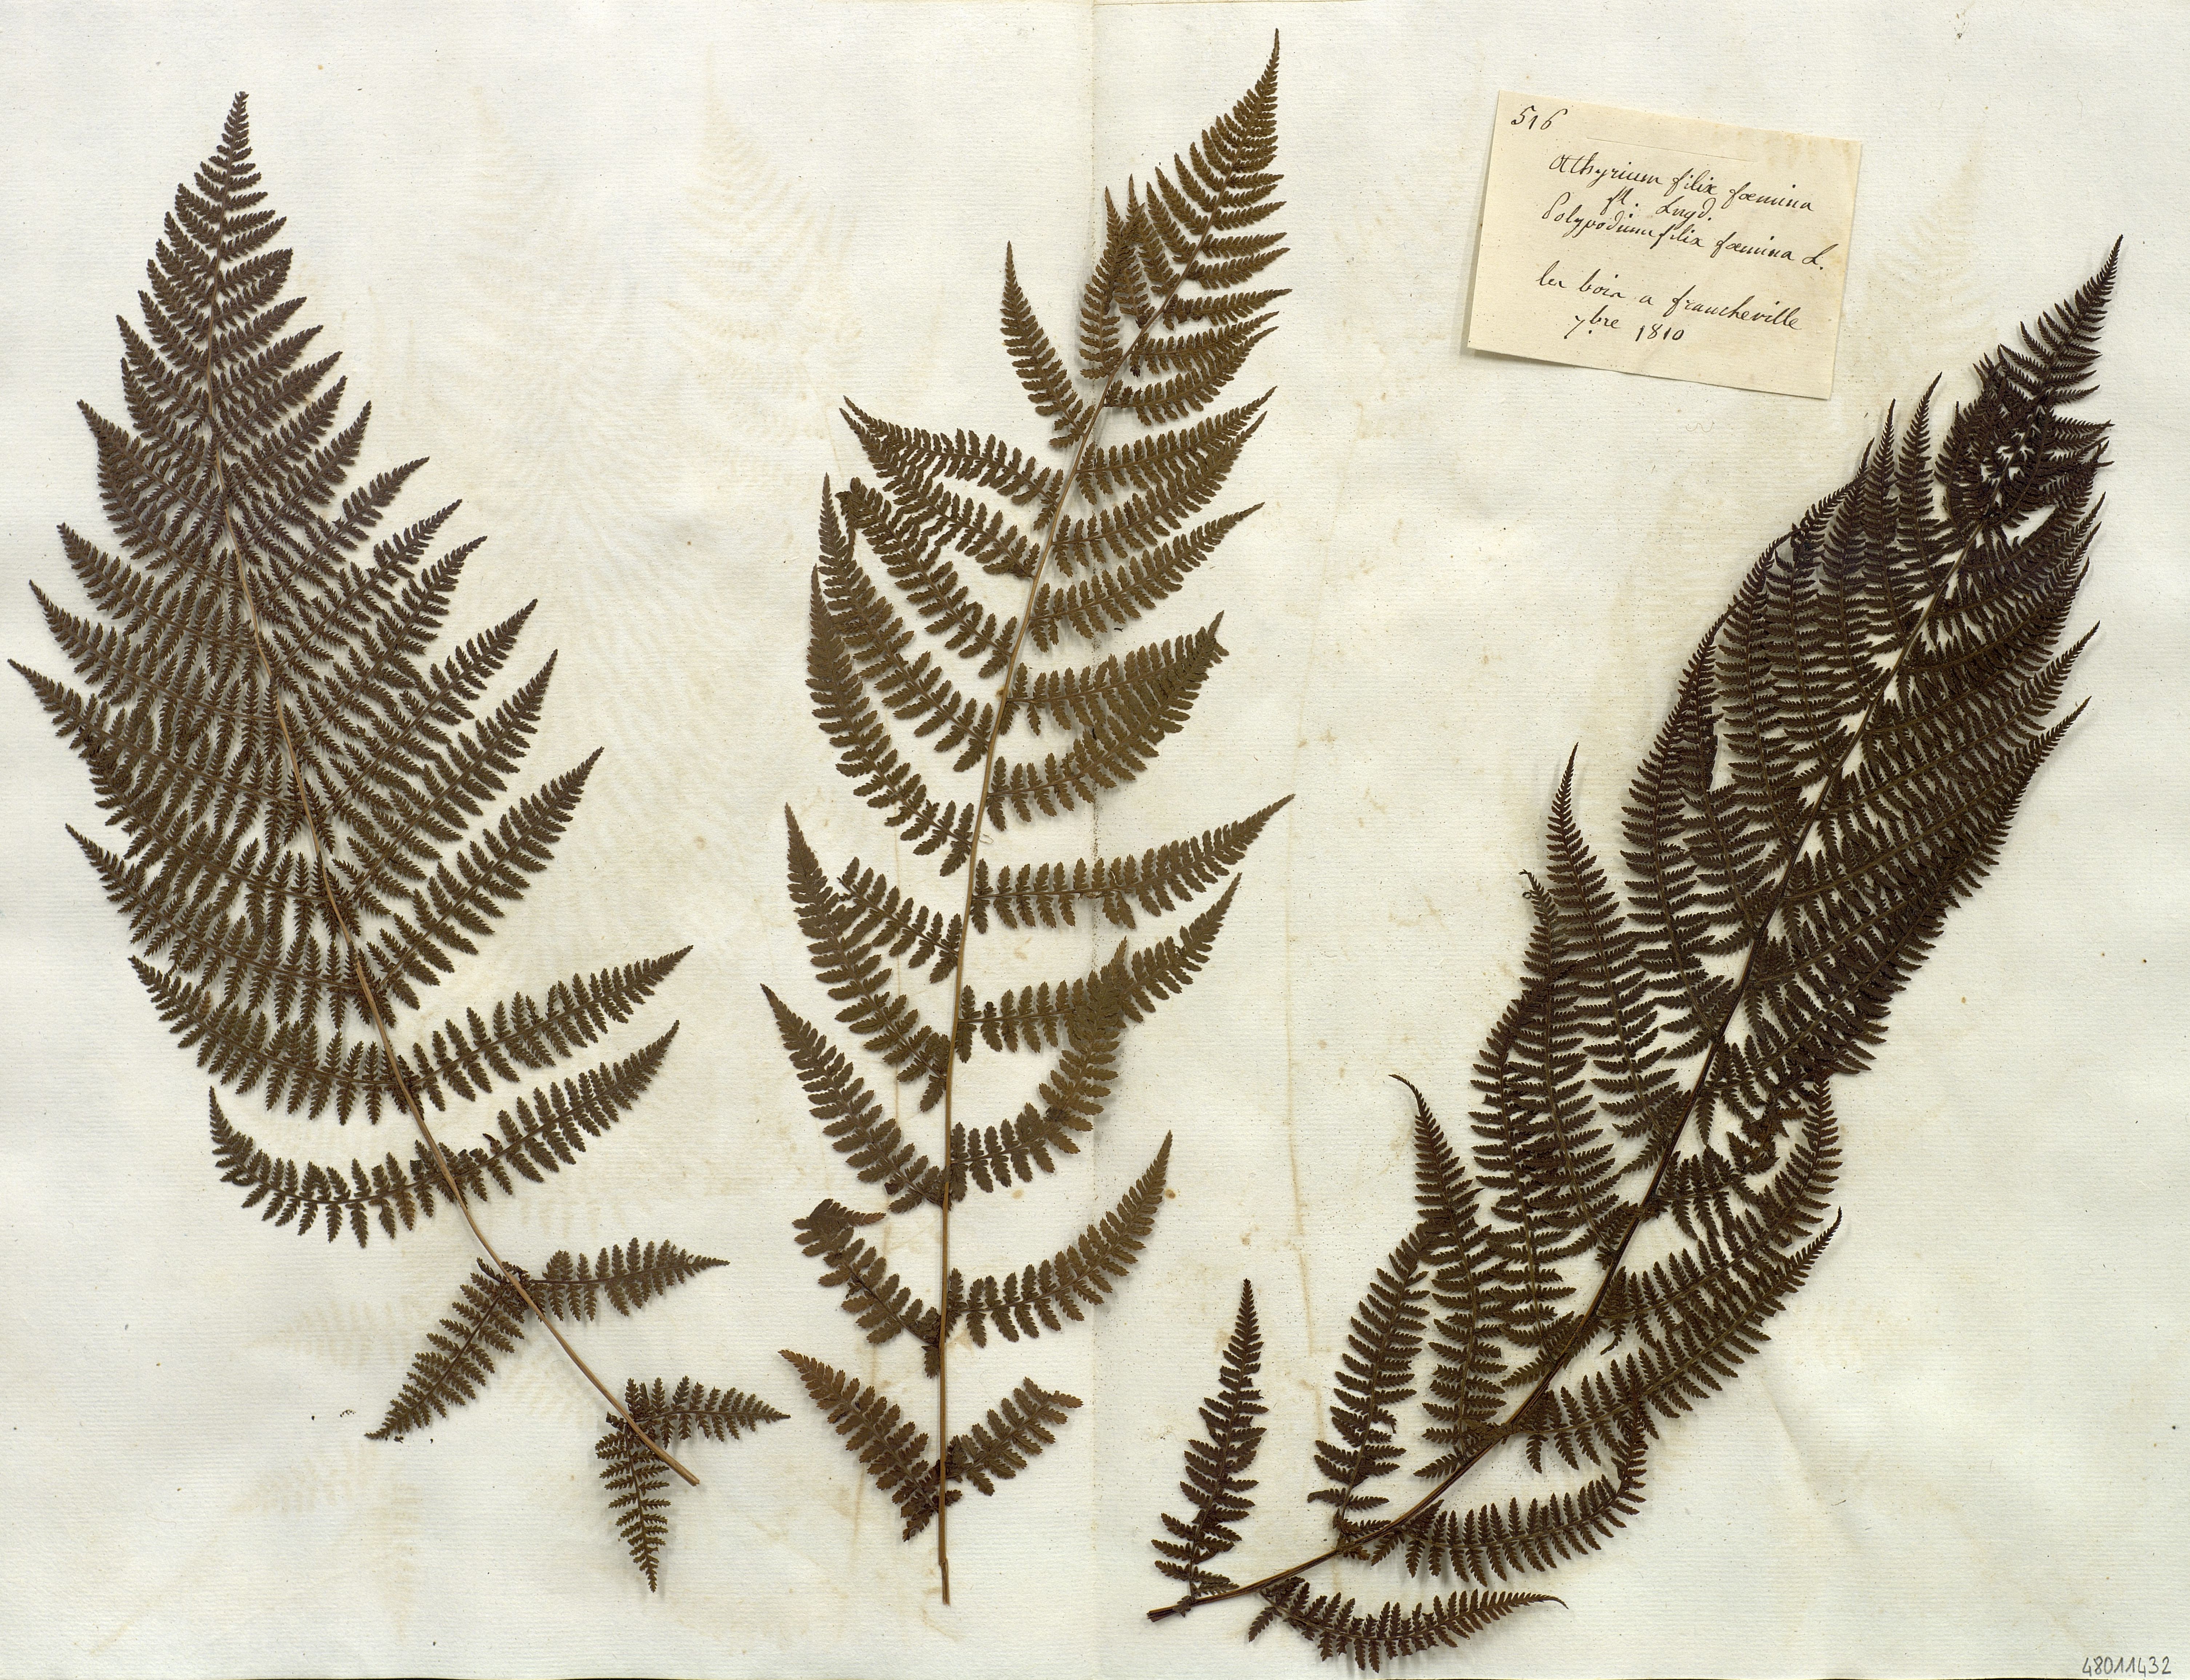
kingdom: Plantae
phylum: Tracheophyta
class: Polypodiopsida
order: Polypodiales
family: Athyriaceae
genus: Athyrium
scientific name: Athyrium filix-foemina
